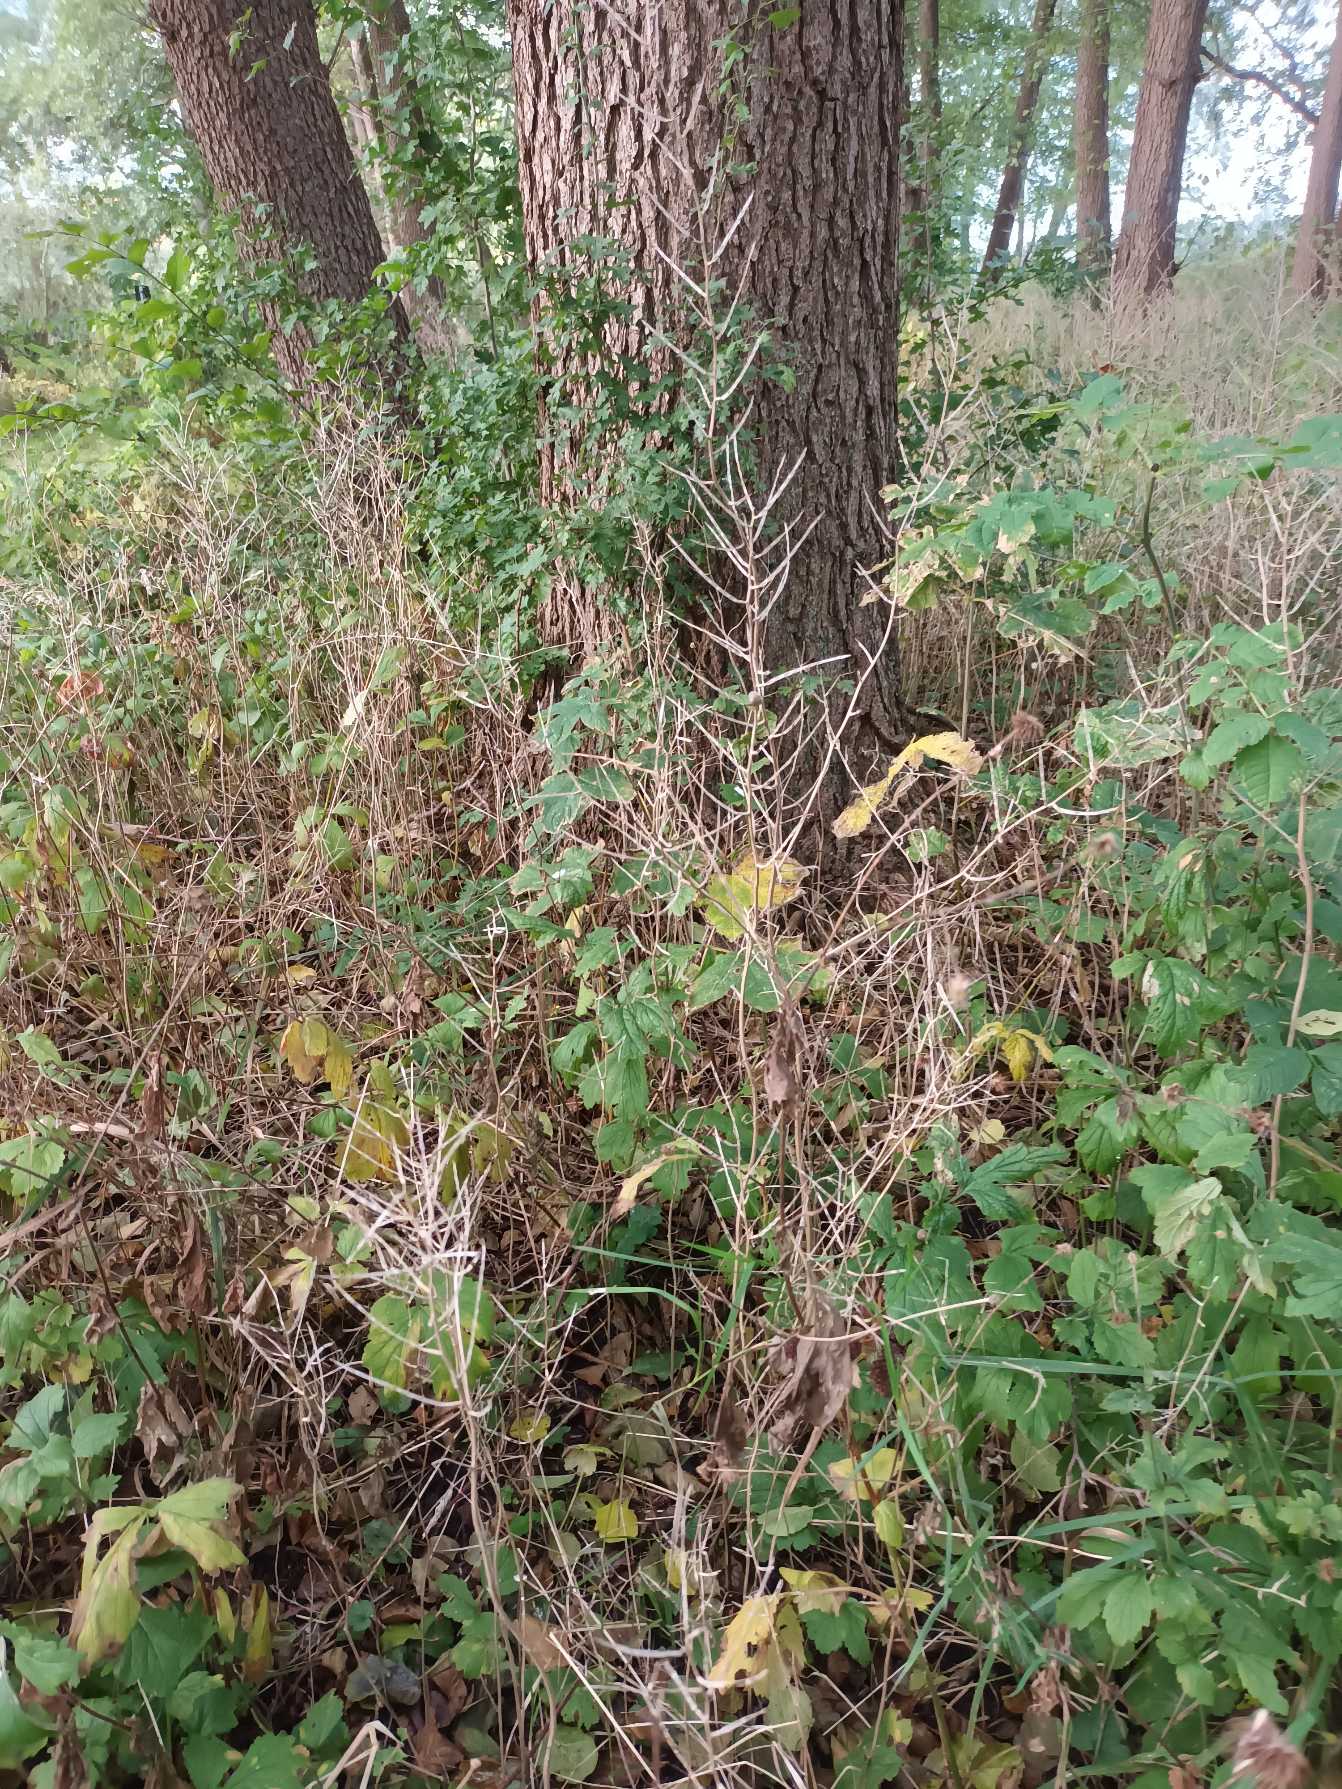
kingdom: Plantae
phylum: Tracheophyta
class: Magnoliopsida
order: Brassicales
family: Brassicaceae
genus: Alliaria
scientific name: Alliaria petiolata
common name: Løgkarse
